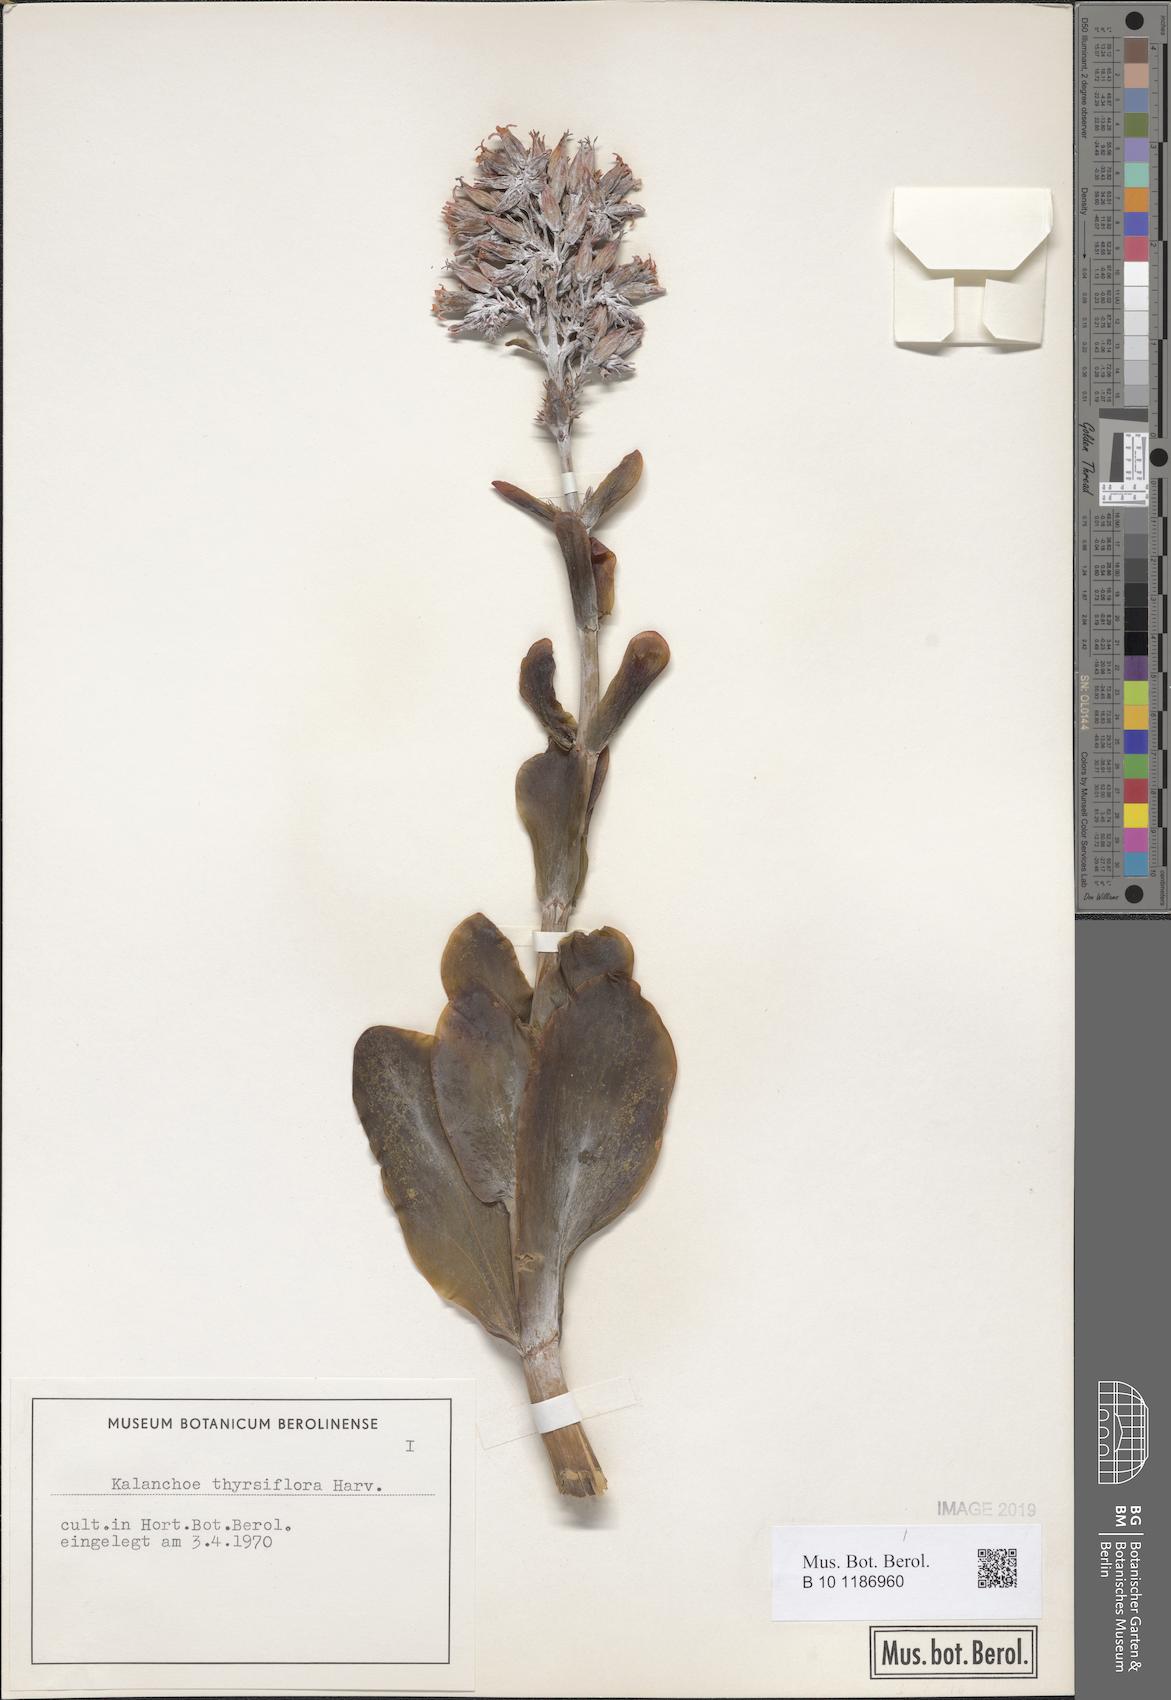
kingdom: Plantae
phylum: Tracheophyta
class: Magnoliopsida
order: Saxifragales
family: Crassulaceae
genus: Kalanchoe
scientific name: Kalanchoe thyrsiflora
